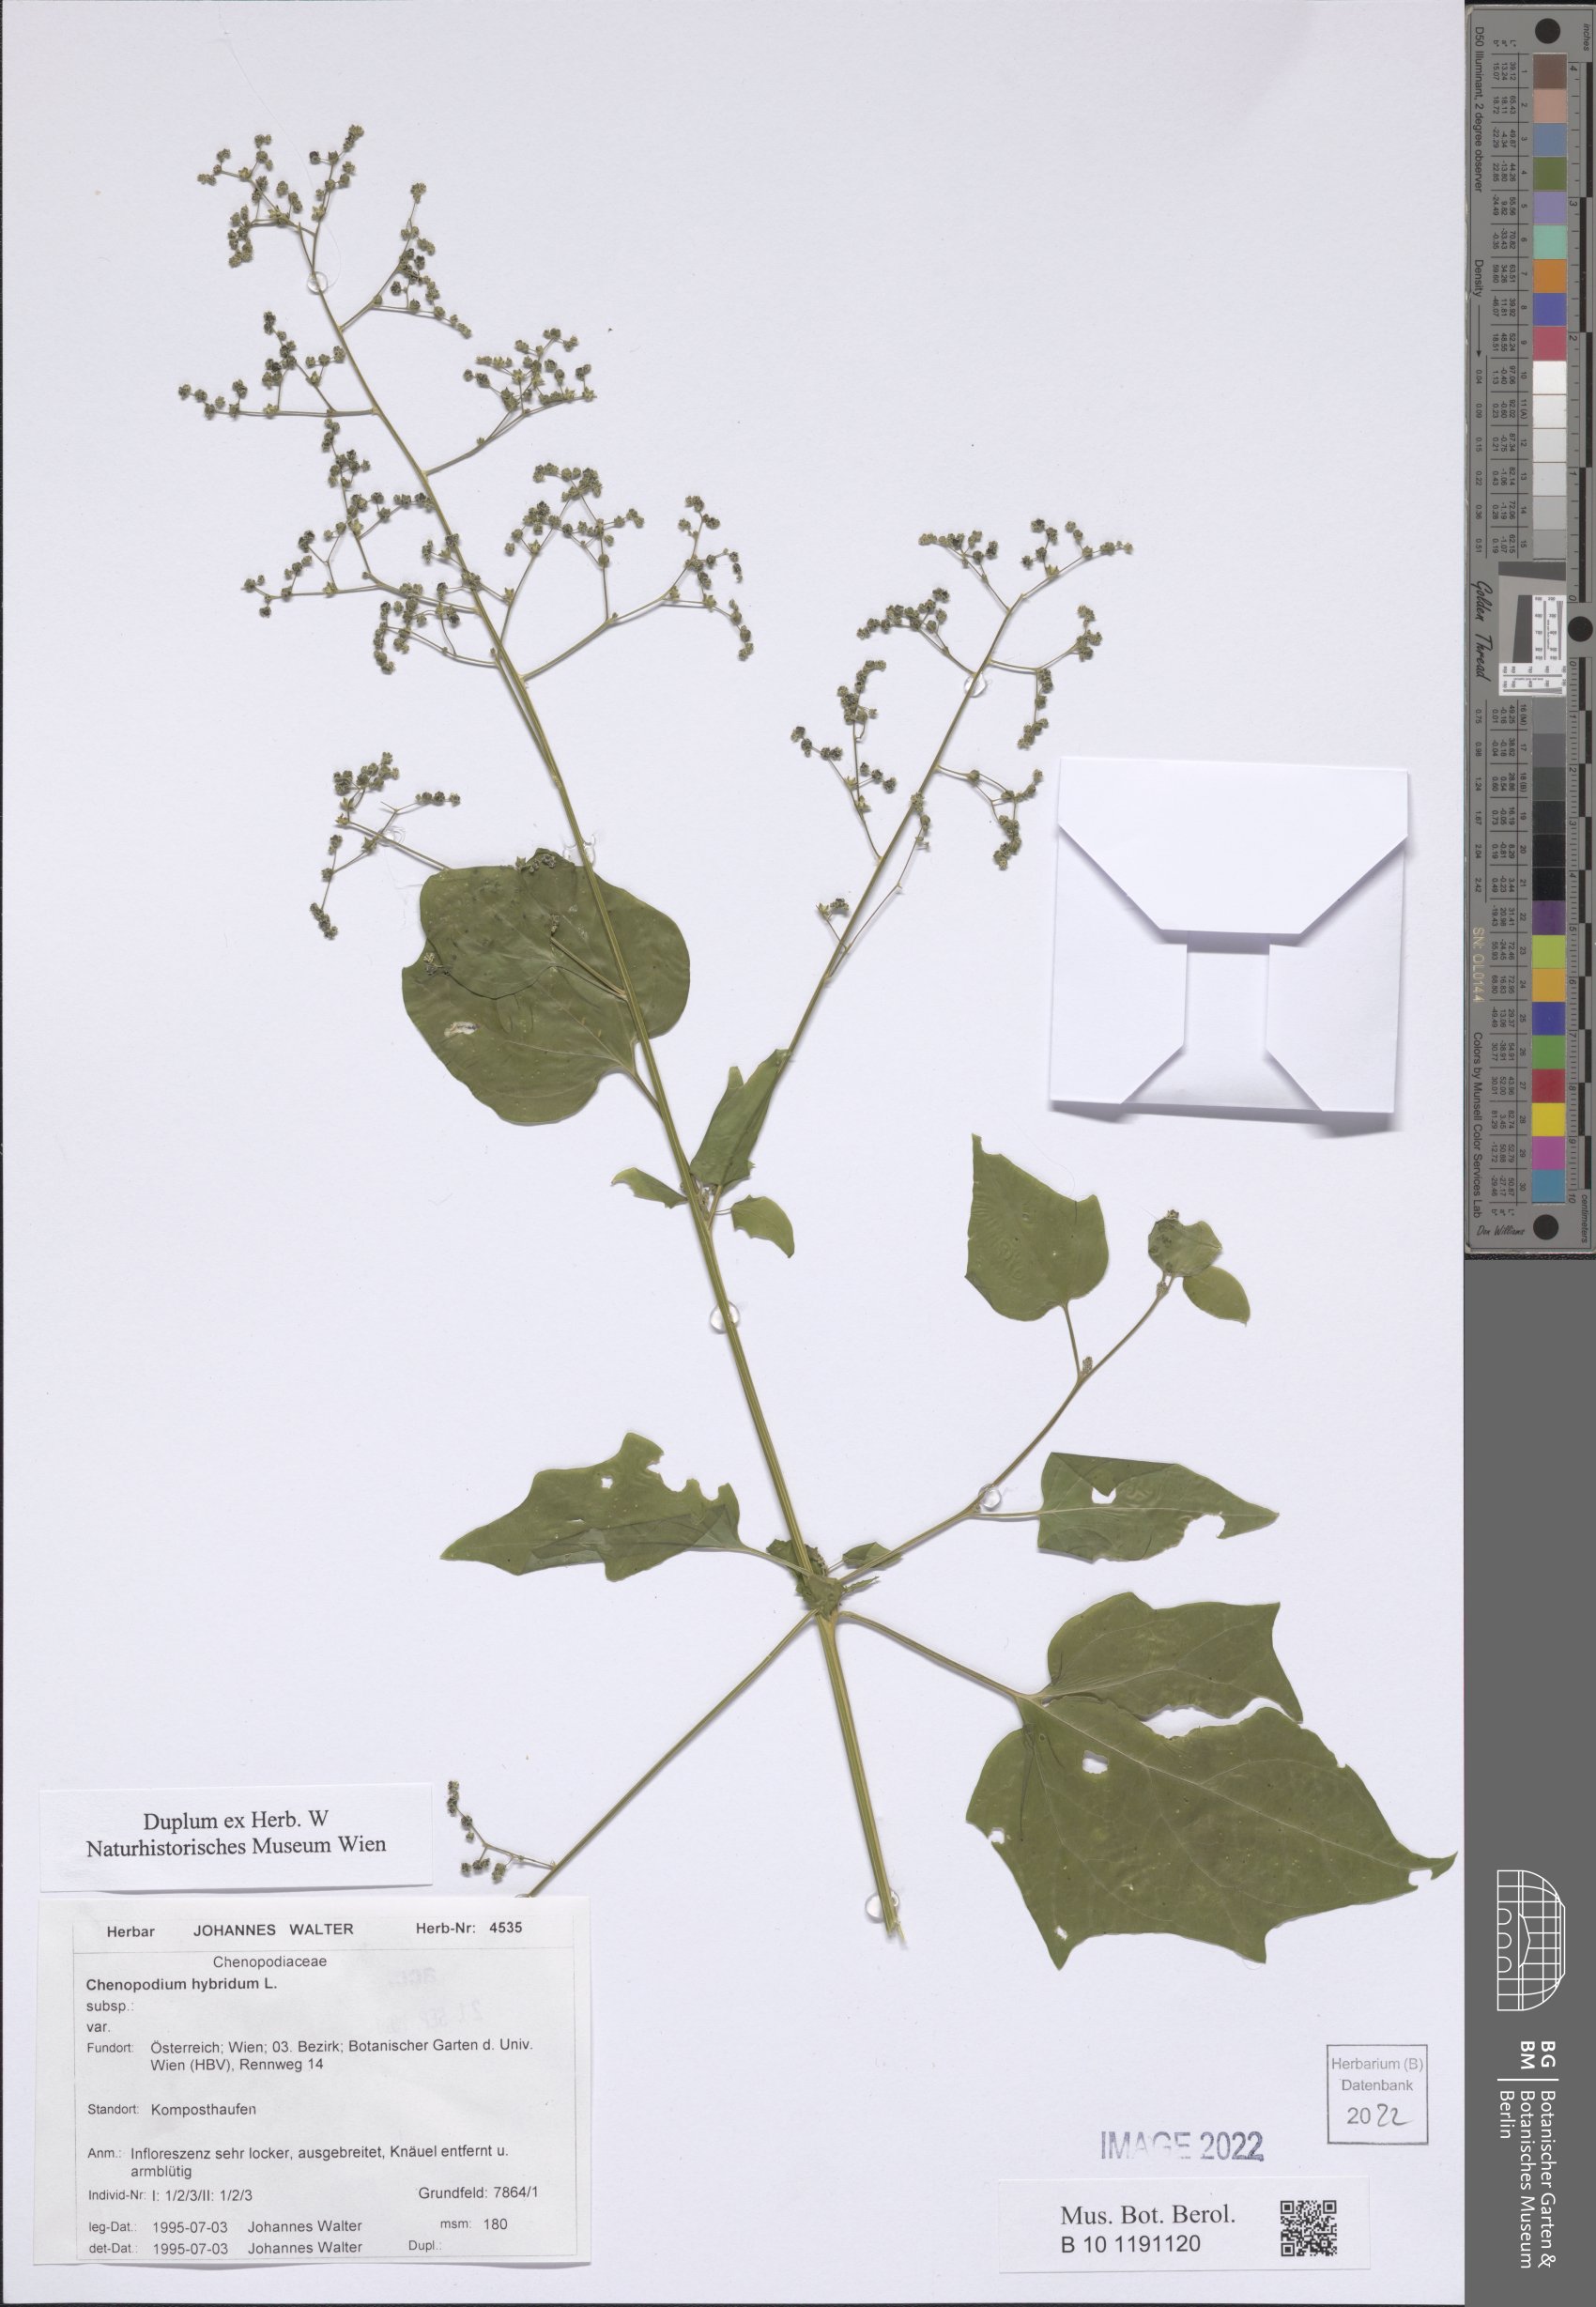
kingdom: Plantae
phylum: Tracheophyta
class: Magnoliopsida
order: Caryophyllales
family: Amaranthaceae
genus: Chenopodiastrum
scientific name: Chenopodiastrum hybridum
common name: Mapleleaf goosefoot
